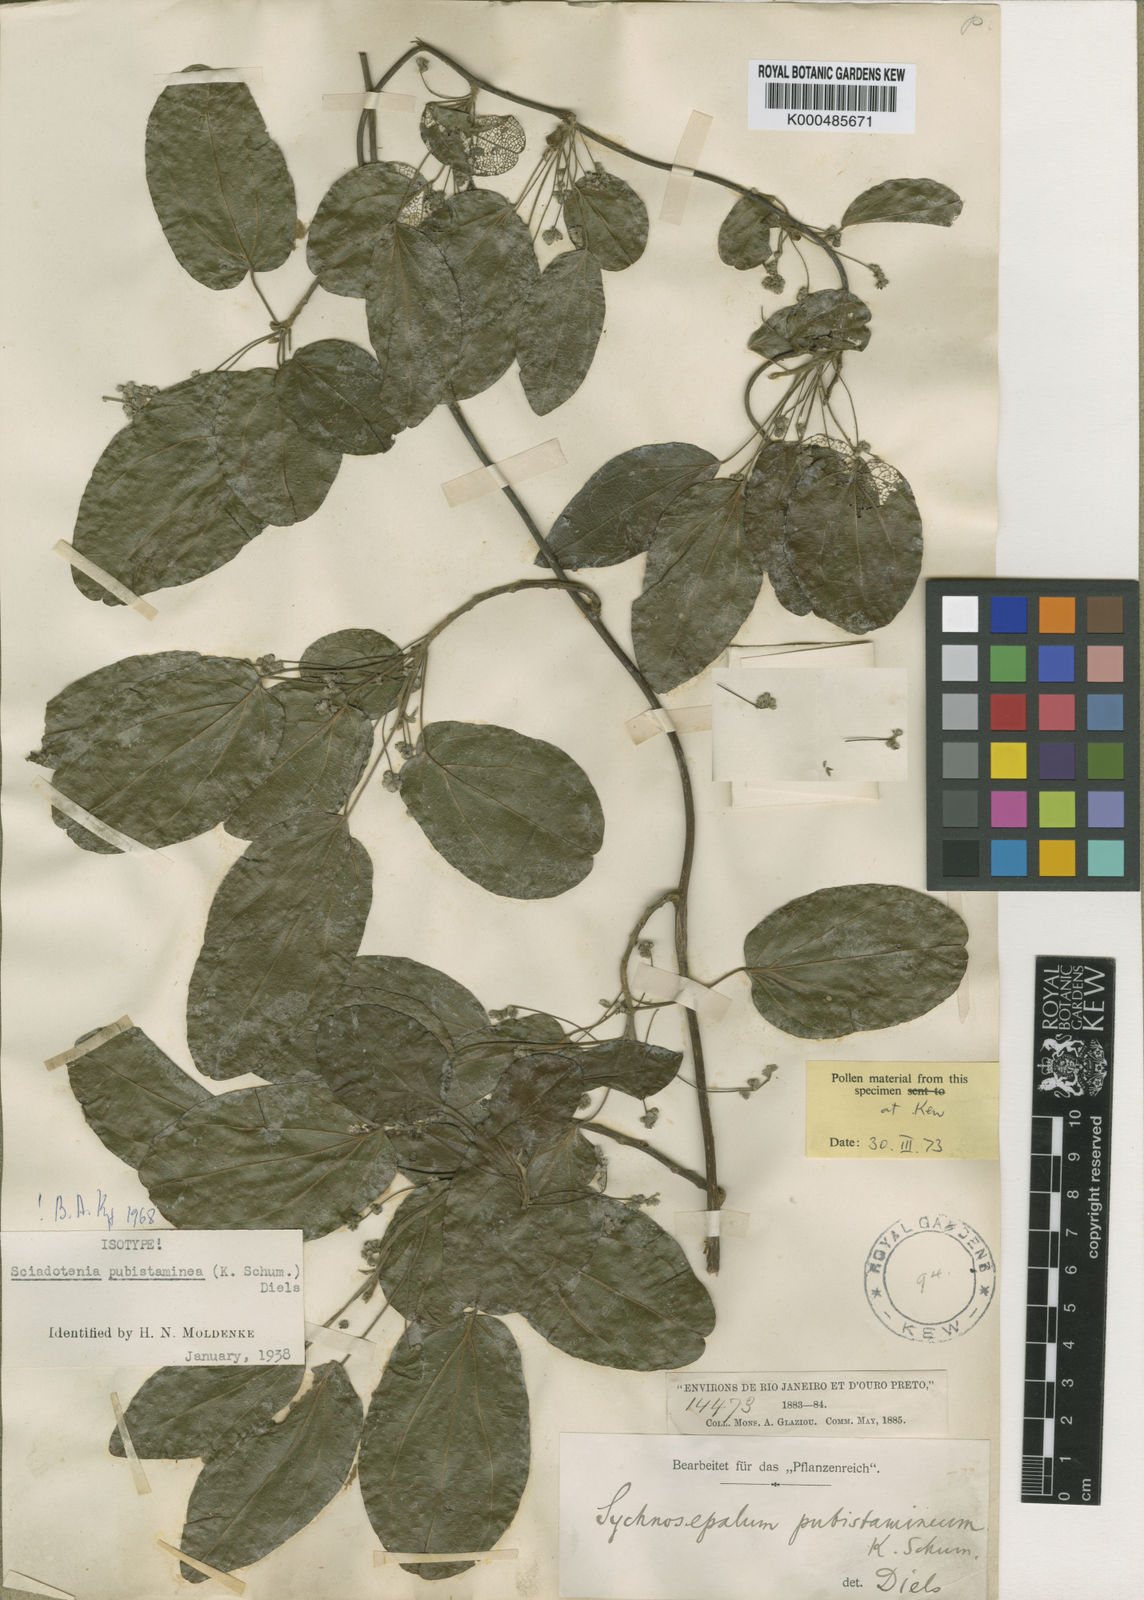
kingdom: Plantae
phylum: Tracheophyta
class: Magnoliopsida
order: Ranunculales
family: Menispermaceae
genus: Sciadotenia
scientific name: Sciadotenia pubistaminea
